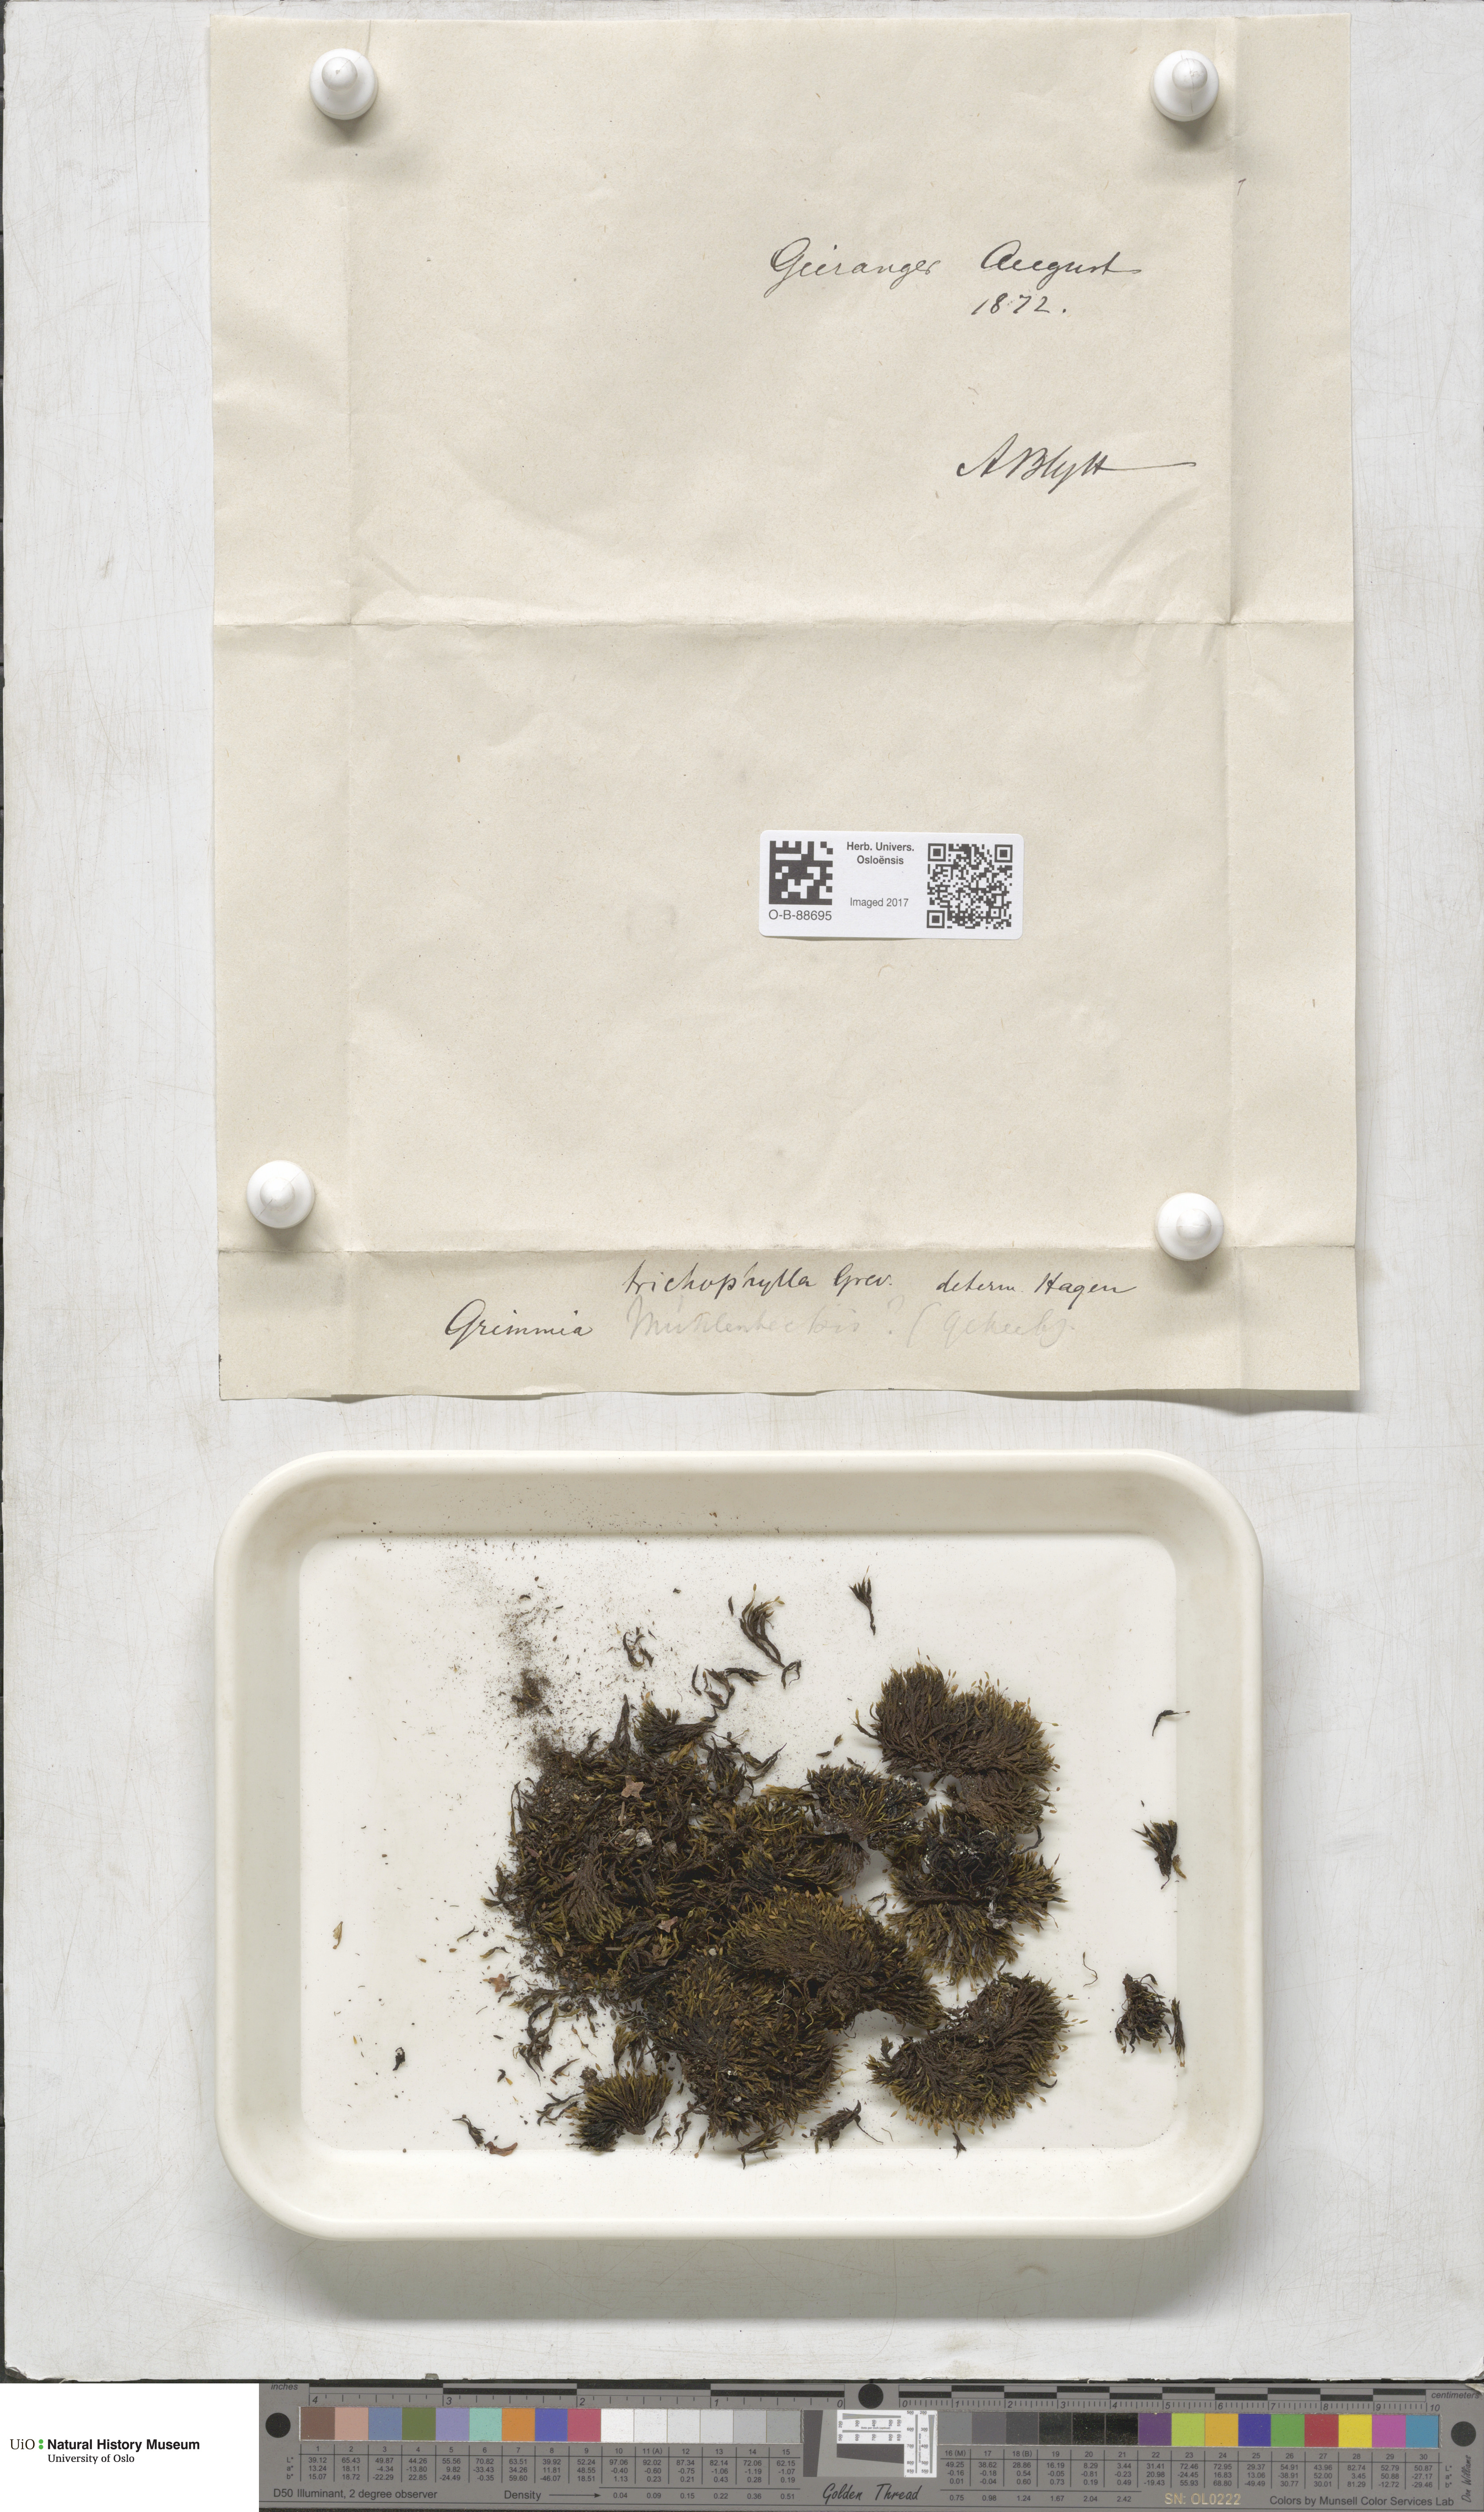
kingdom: Plantae
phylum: Bryophyta
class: Bryopsida
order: Grimmiales
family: Grimmiaceae
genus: Grimmia
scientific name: Grimmia trichophylla
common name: Hair-pointed grimmia
